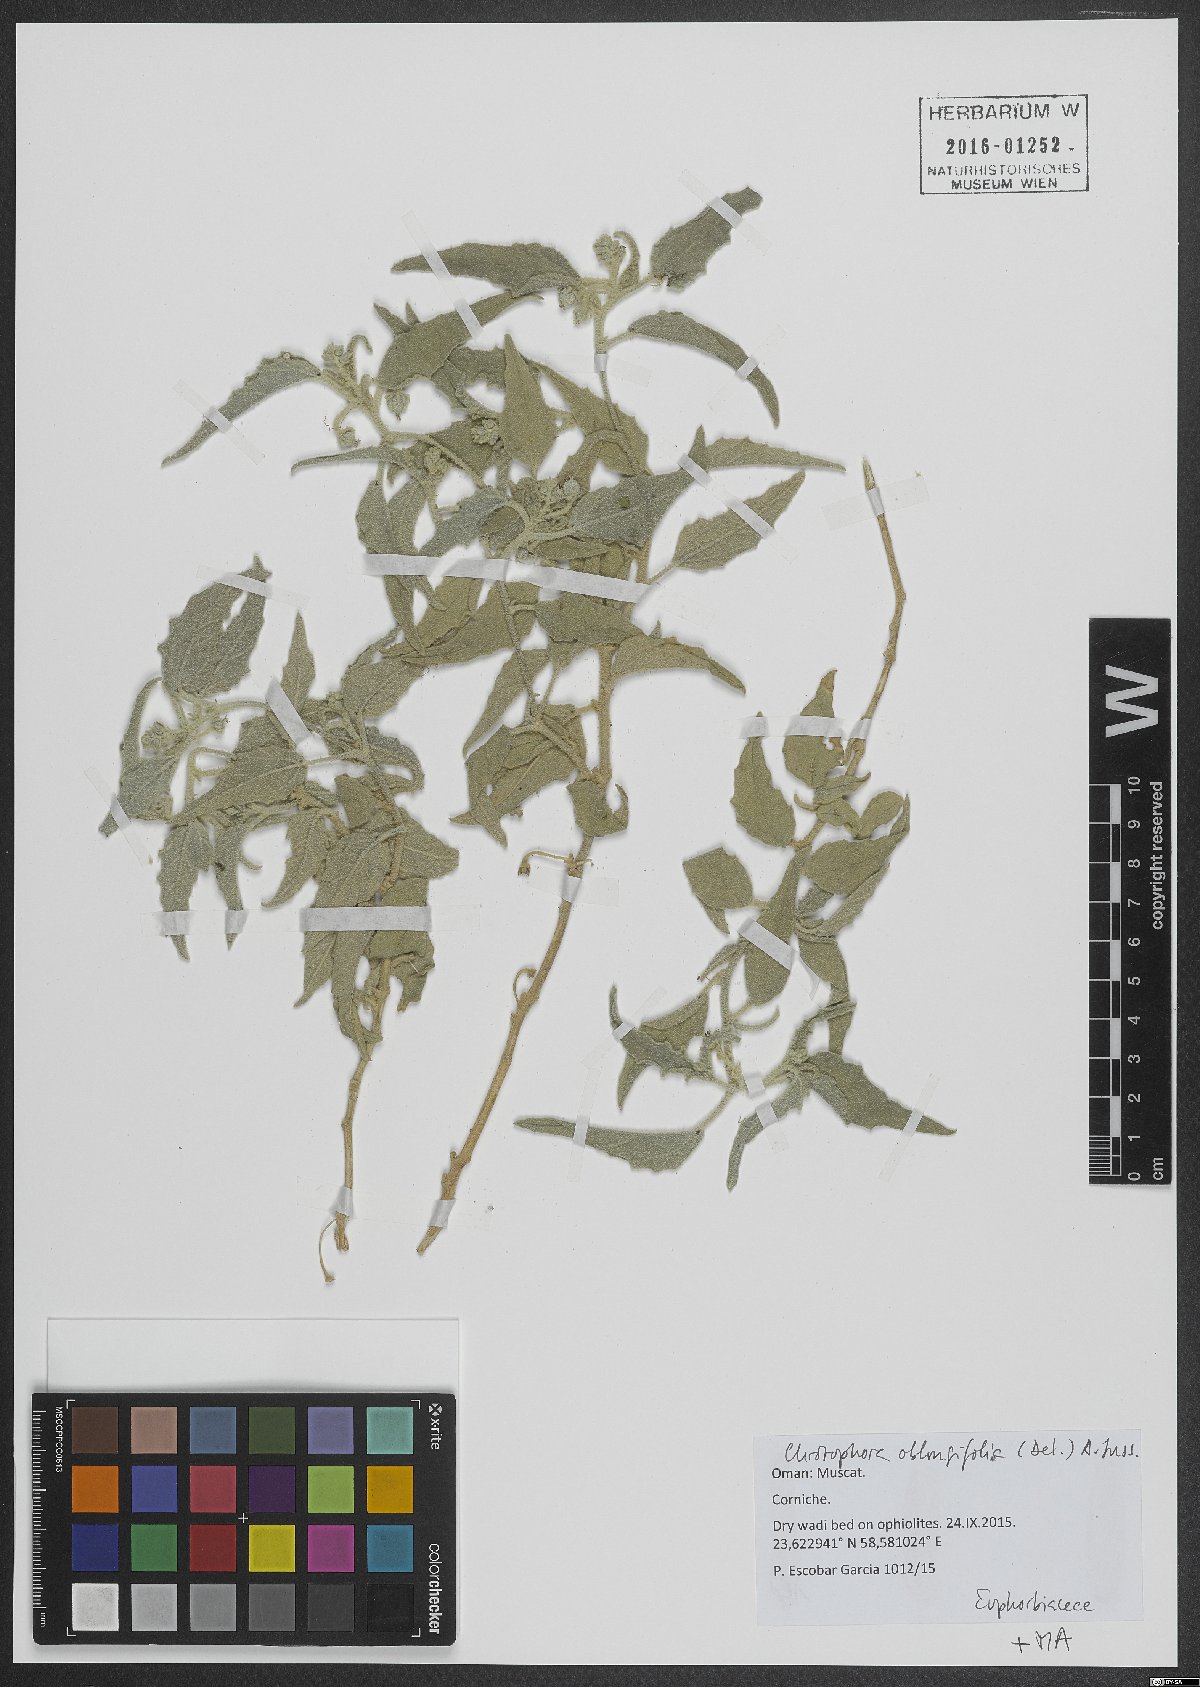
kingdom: Plantae
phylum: Tracheophyta
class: Magnoliopsida
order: Malpighiales
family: Euphorbiaceae
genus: Chrozophora
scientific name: Chrozophora oblongifolia
